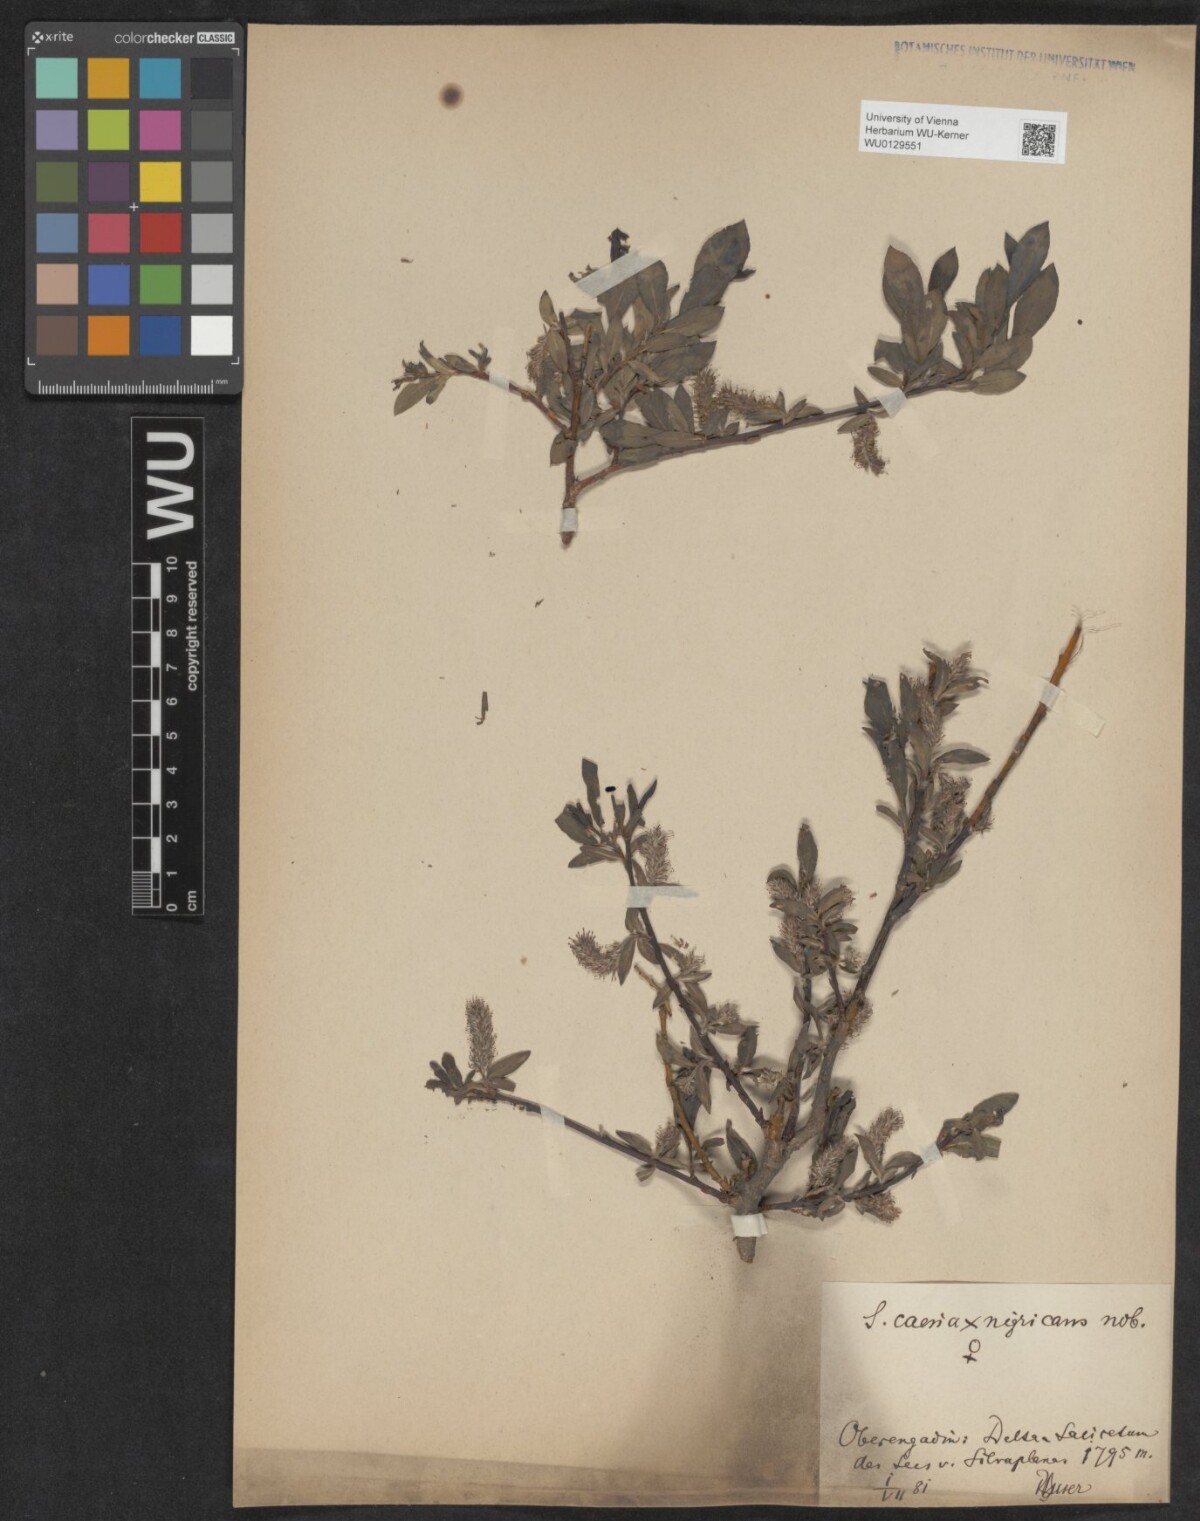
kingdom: Plantae
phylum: Tracheophyta
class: Magnoliopsida
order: Malpighiales
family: Salicaceae
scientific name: Salicaceae
